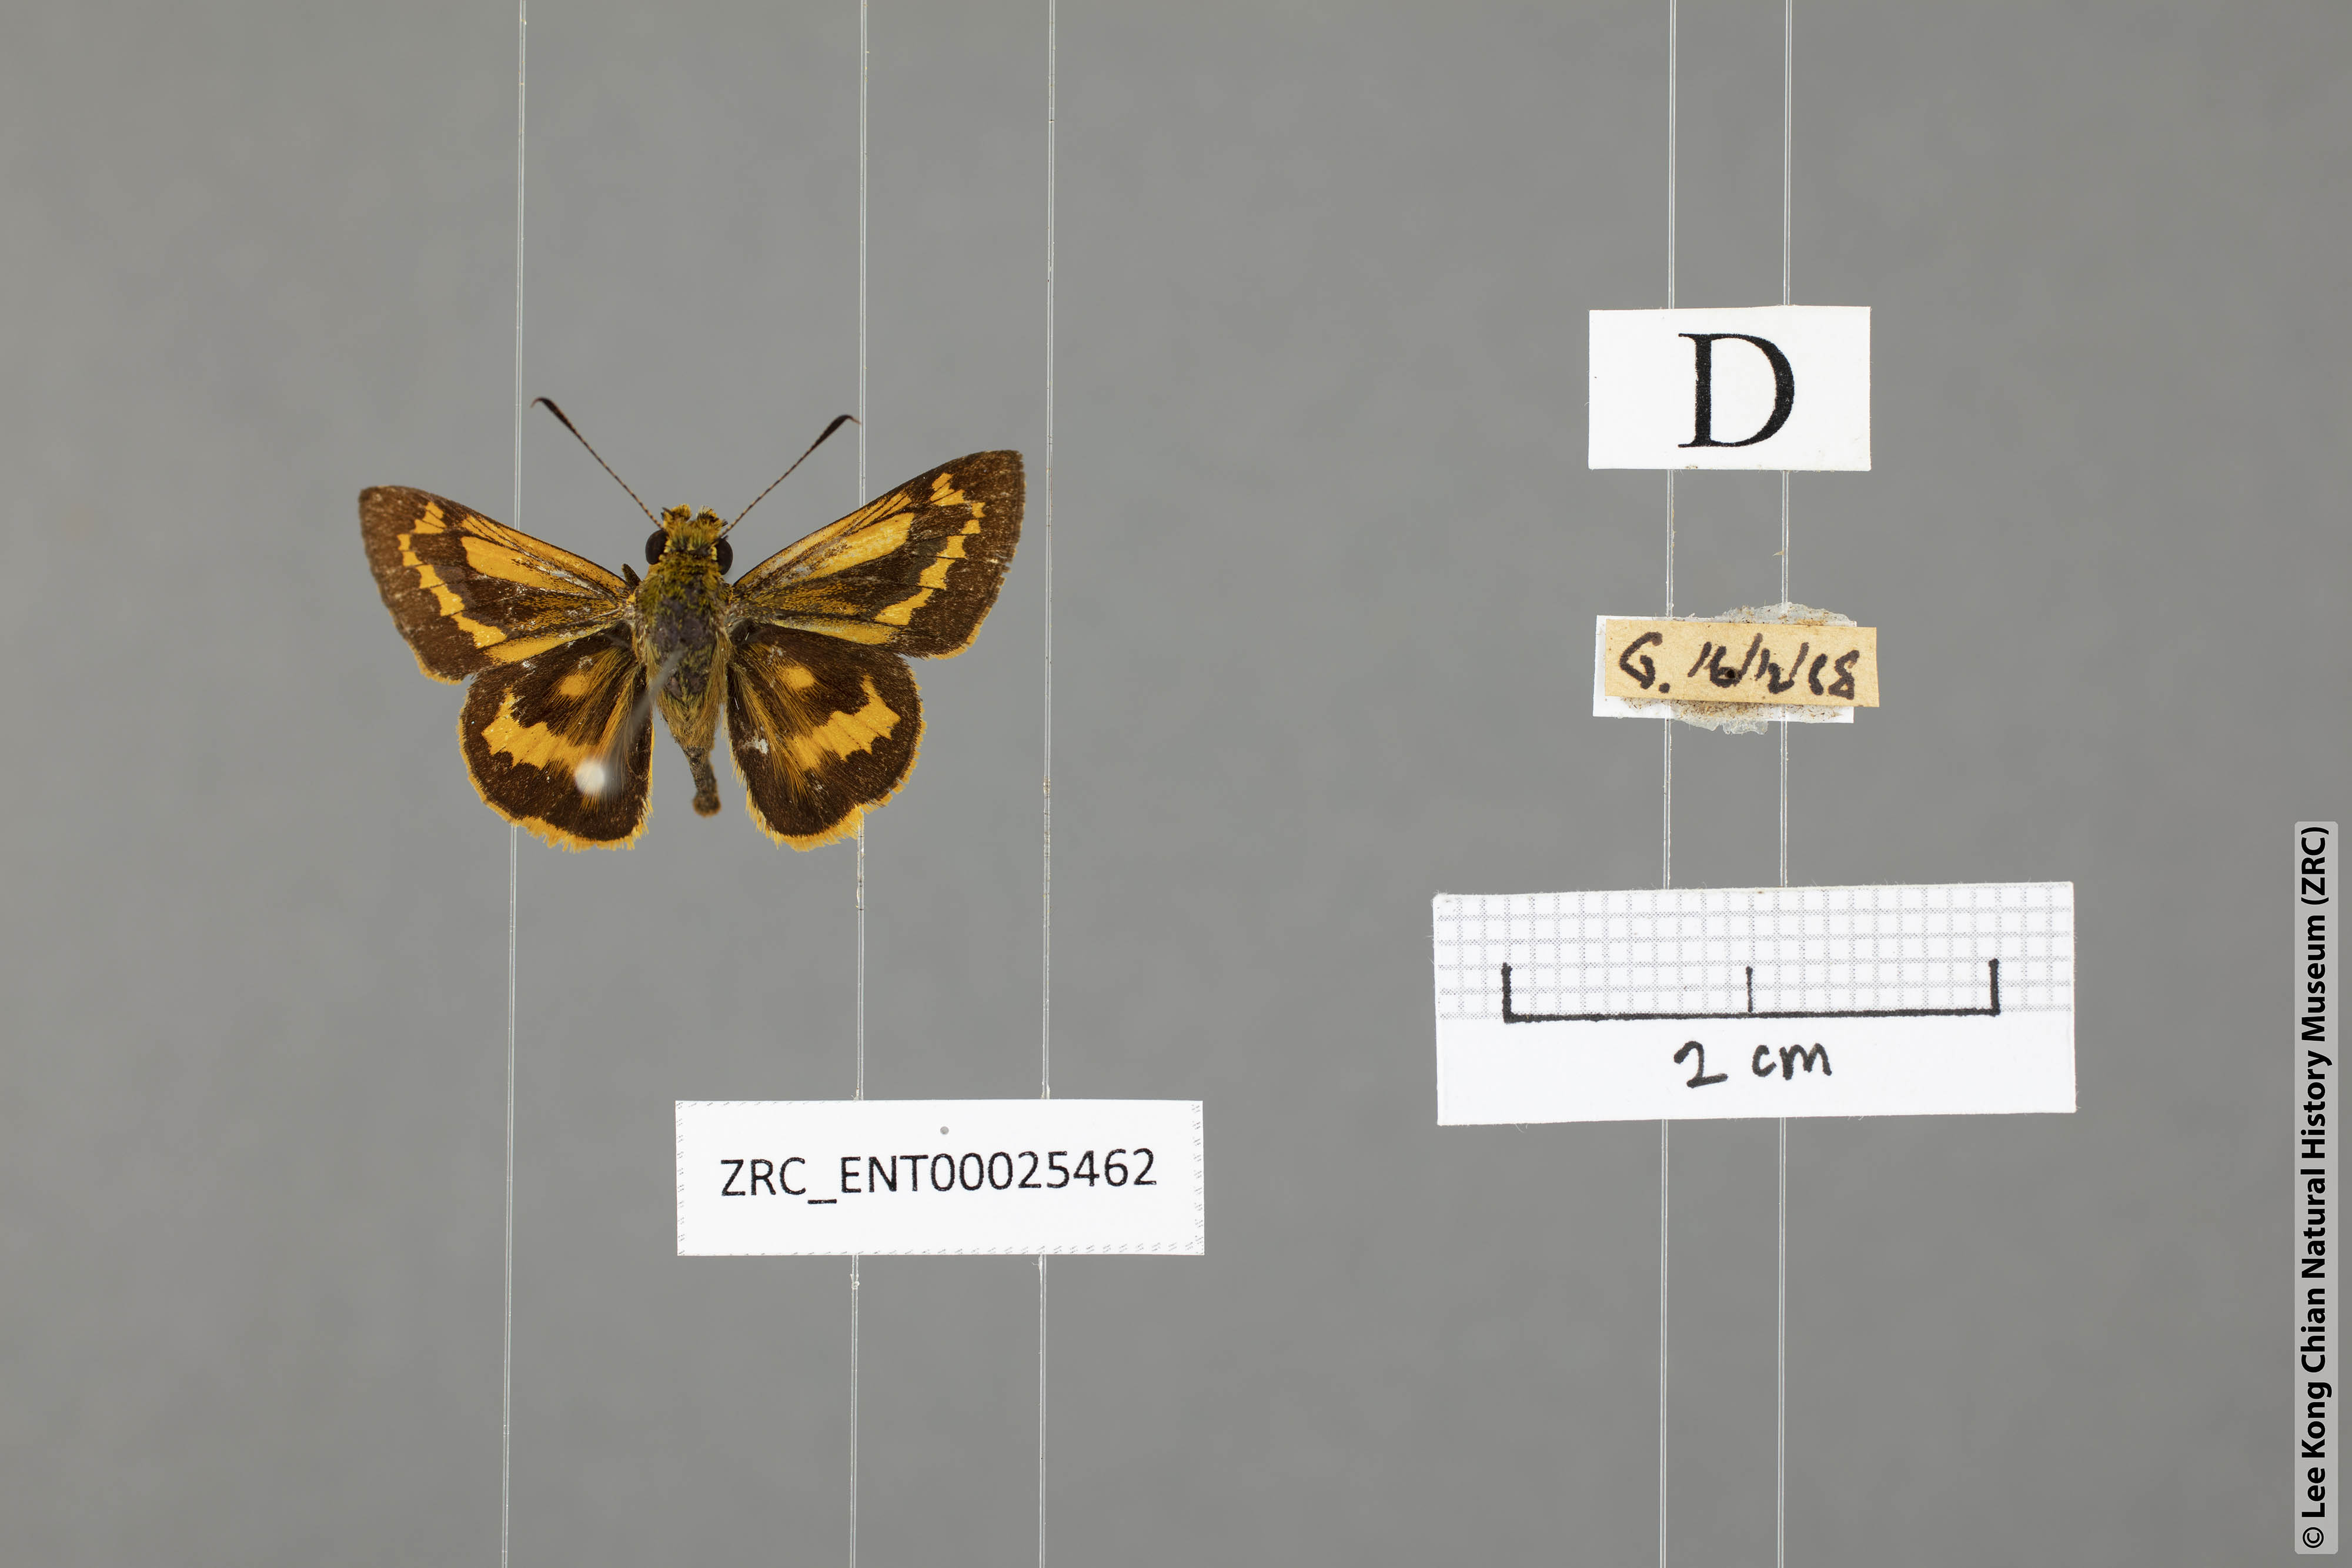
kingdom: Animalia
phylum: Arthropoda
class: Insecta
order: Lepidoptera
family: Hesperiidae
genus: Potanthus
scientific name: Potanthus rectifasciata
